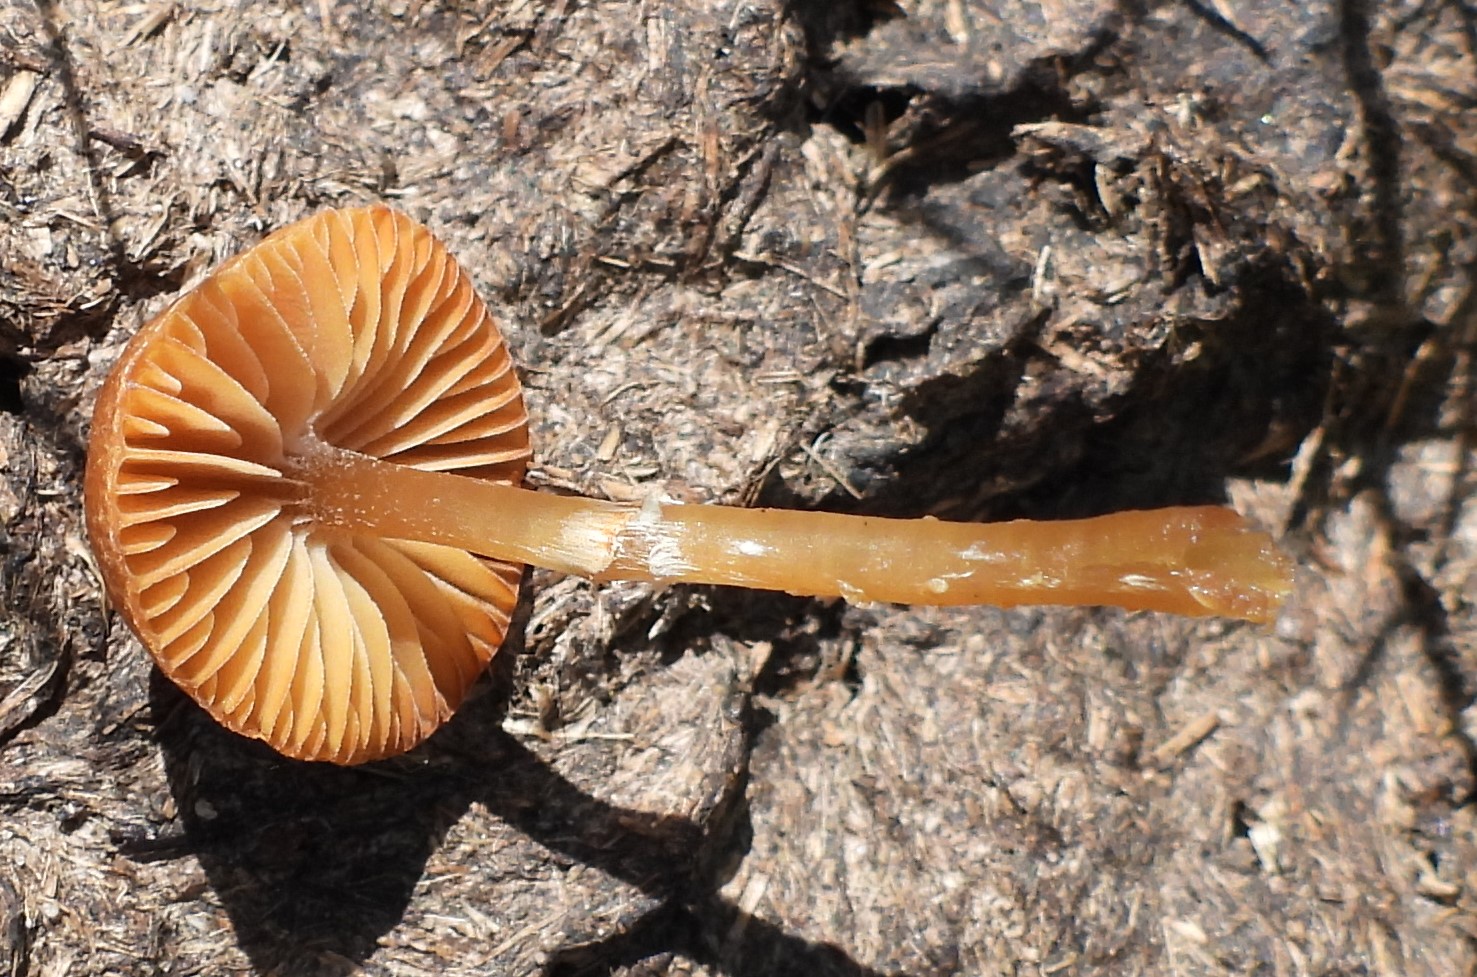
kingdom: Fungi
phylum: Basidiomycota
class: Agaricomycetes
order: Agaricales
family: Hymenogastraceae
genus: Galerina
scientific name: Galerina paludosa
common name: mose-hjelmhat
